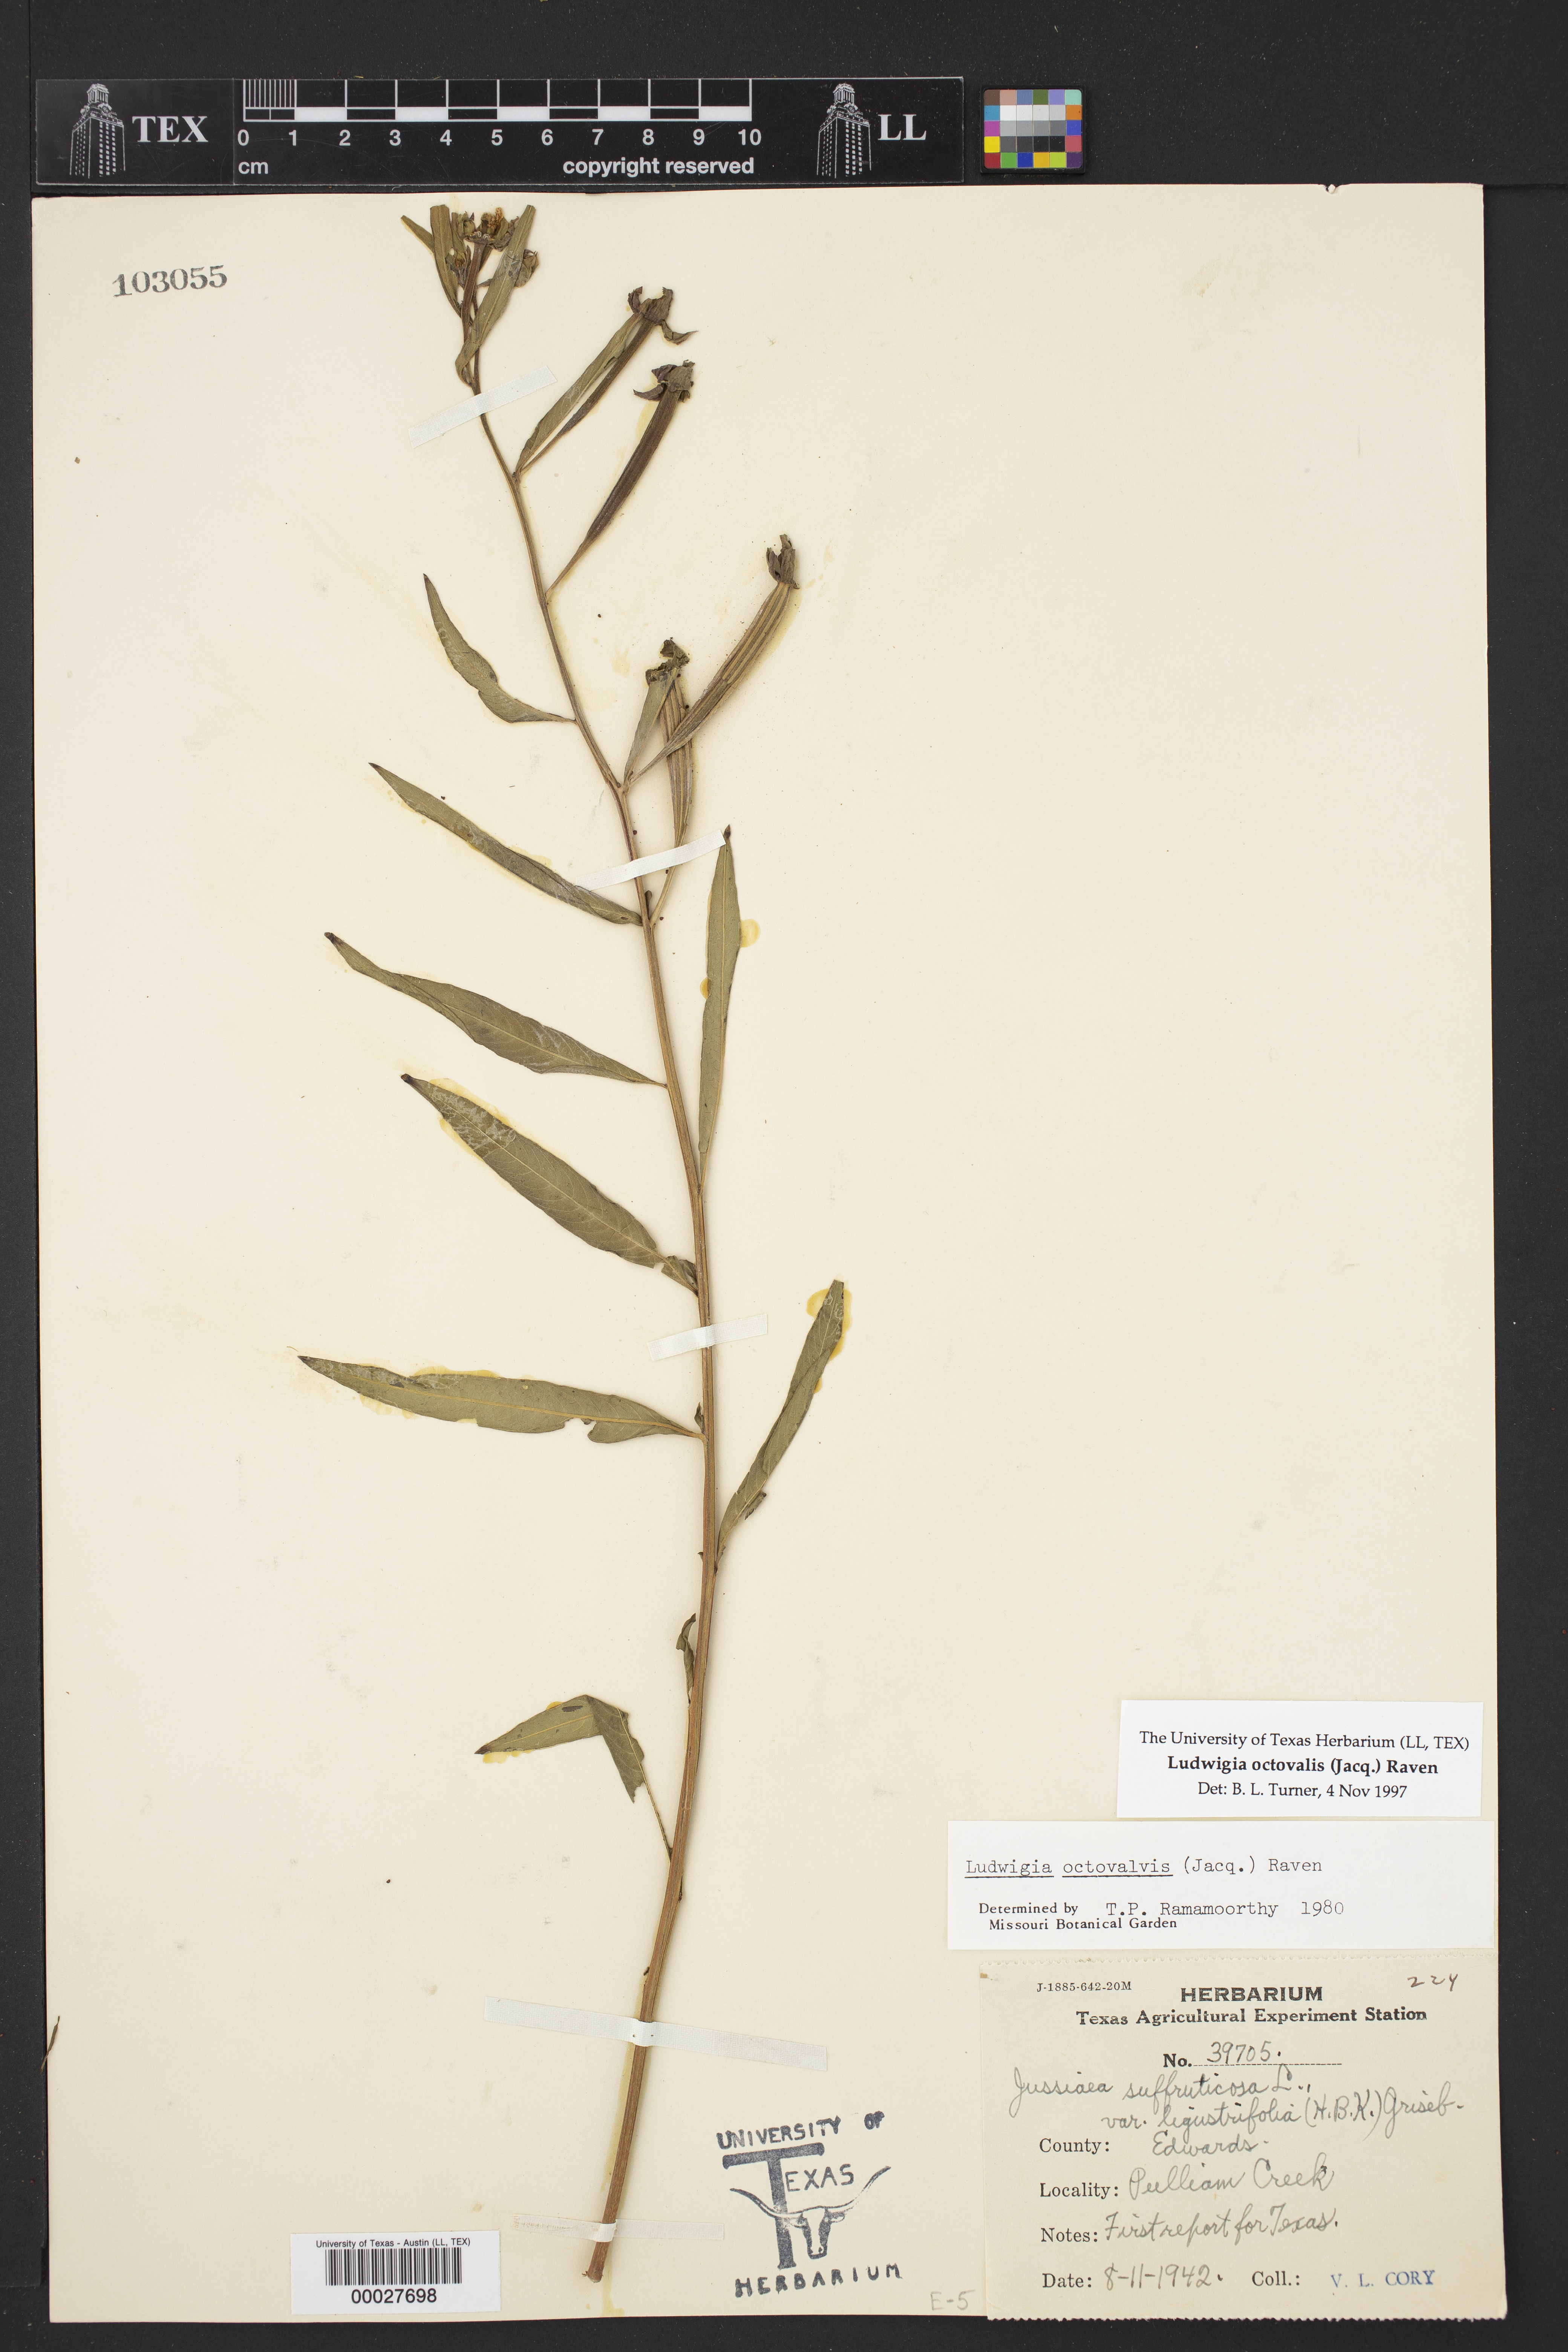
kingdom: Plantae
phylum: Tracheophyta
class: Magnoliopsida
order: Myrtales
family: Onagraceae
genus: Ludwigia
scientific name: Ludwigia octovalvis
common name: Water-primrose
